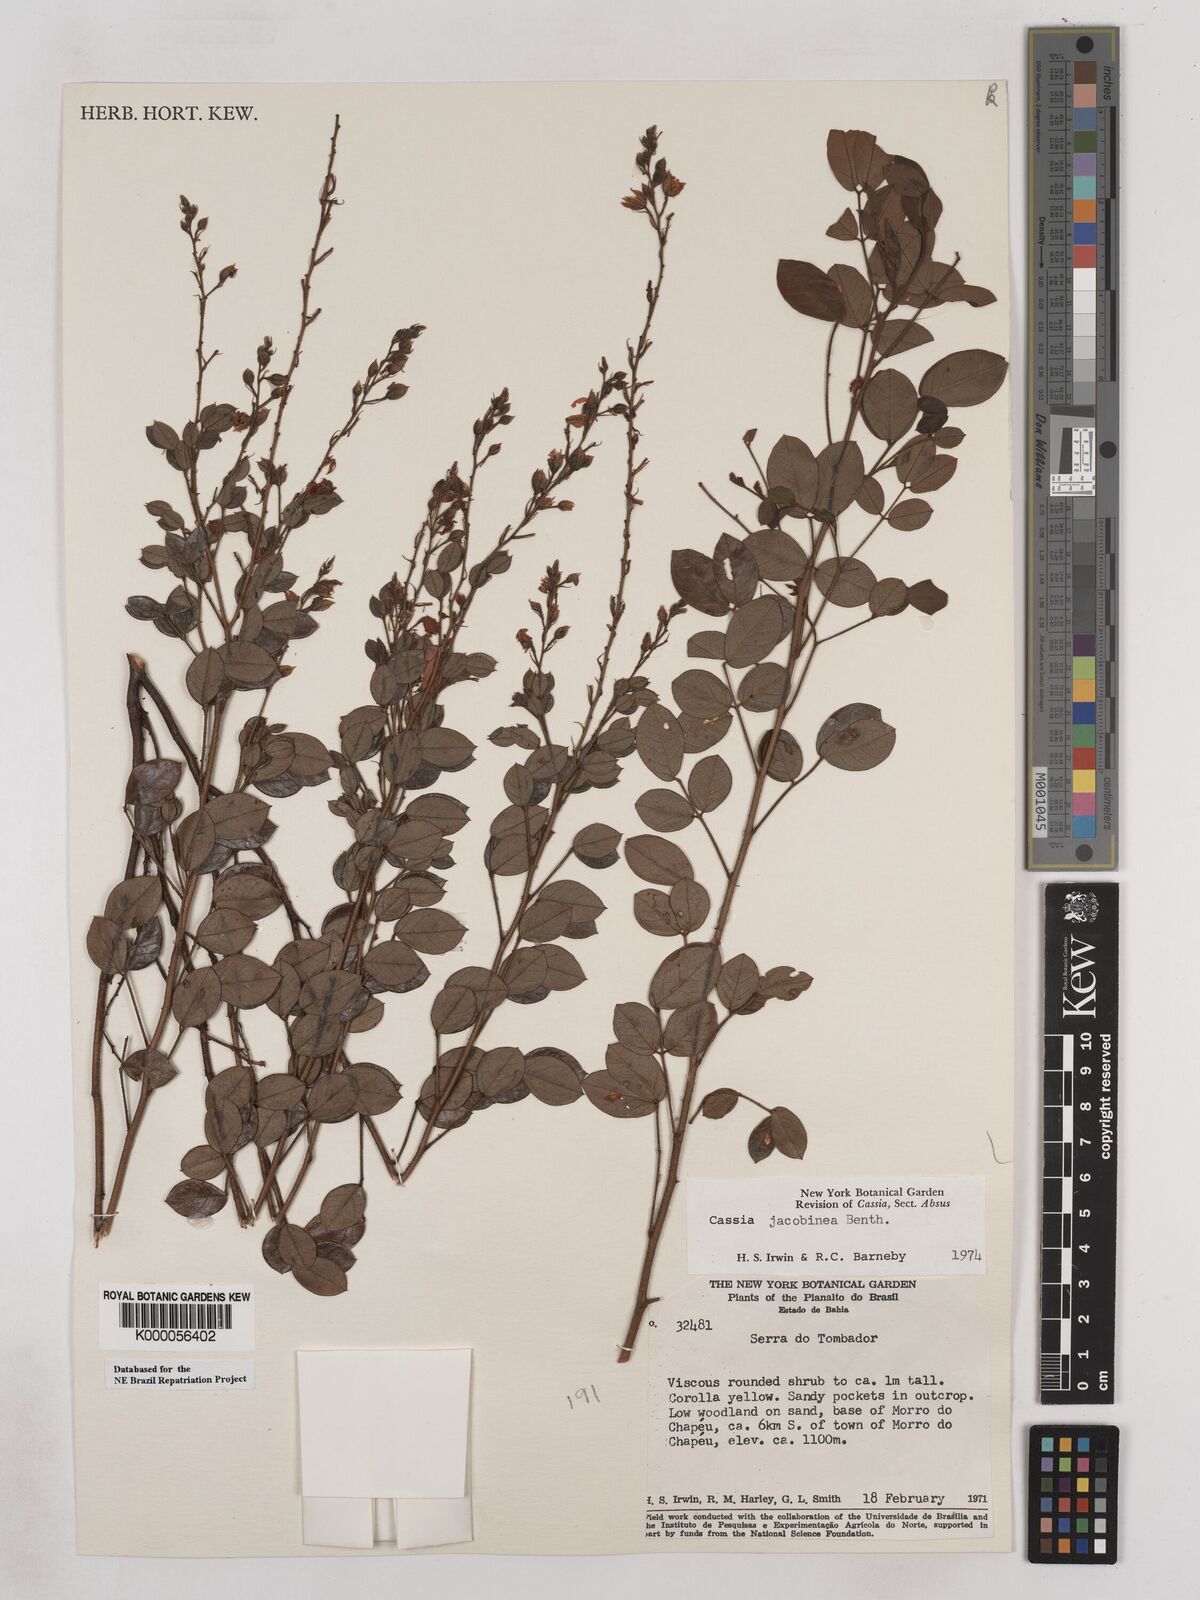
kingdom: Plantae
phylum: Tracheophyta
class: Magnoliopsida
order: Fabales
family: Fabaceae
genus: Chamaecrista
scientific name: Chamaecrista jacobinea
